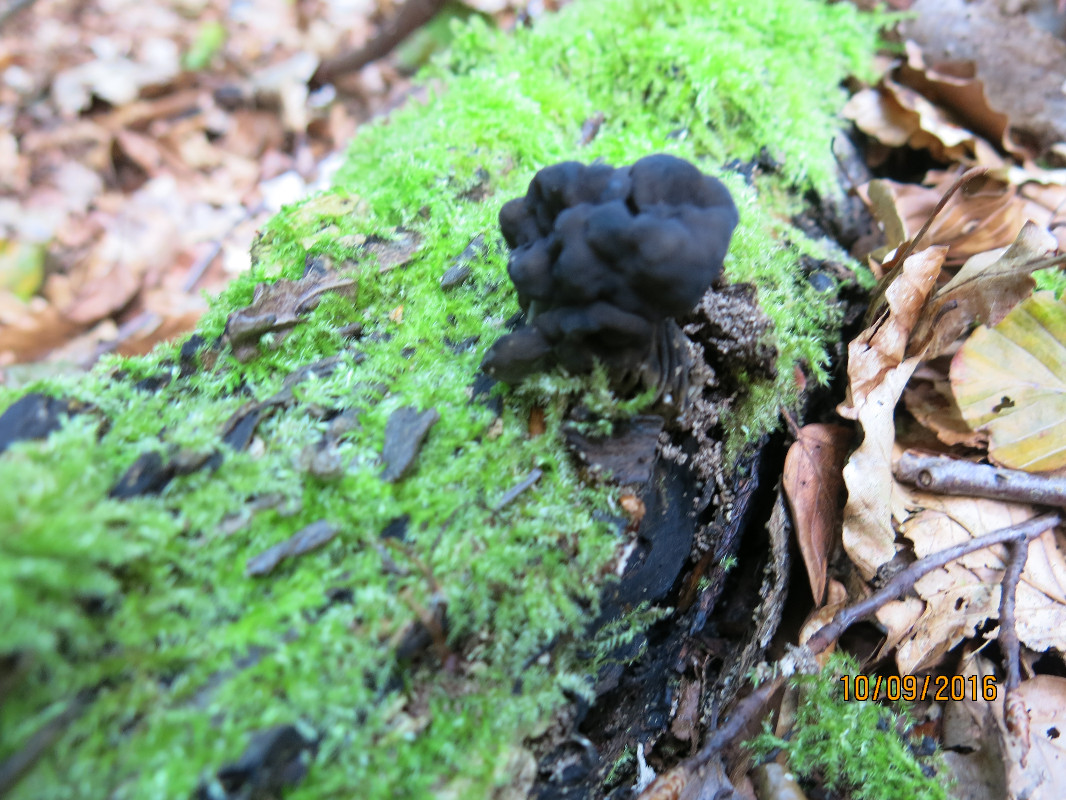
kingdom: Fungi
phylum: Ascomycota
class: Pezizomycetes
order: Pezizales
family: Helvellaceae
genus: Helvella
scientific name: Helvella lacunosa
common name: grubet foldhat
